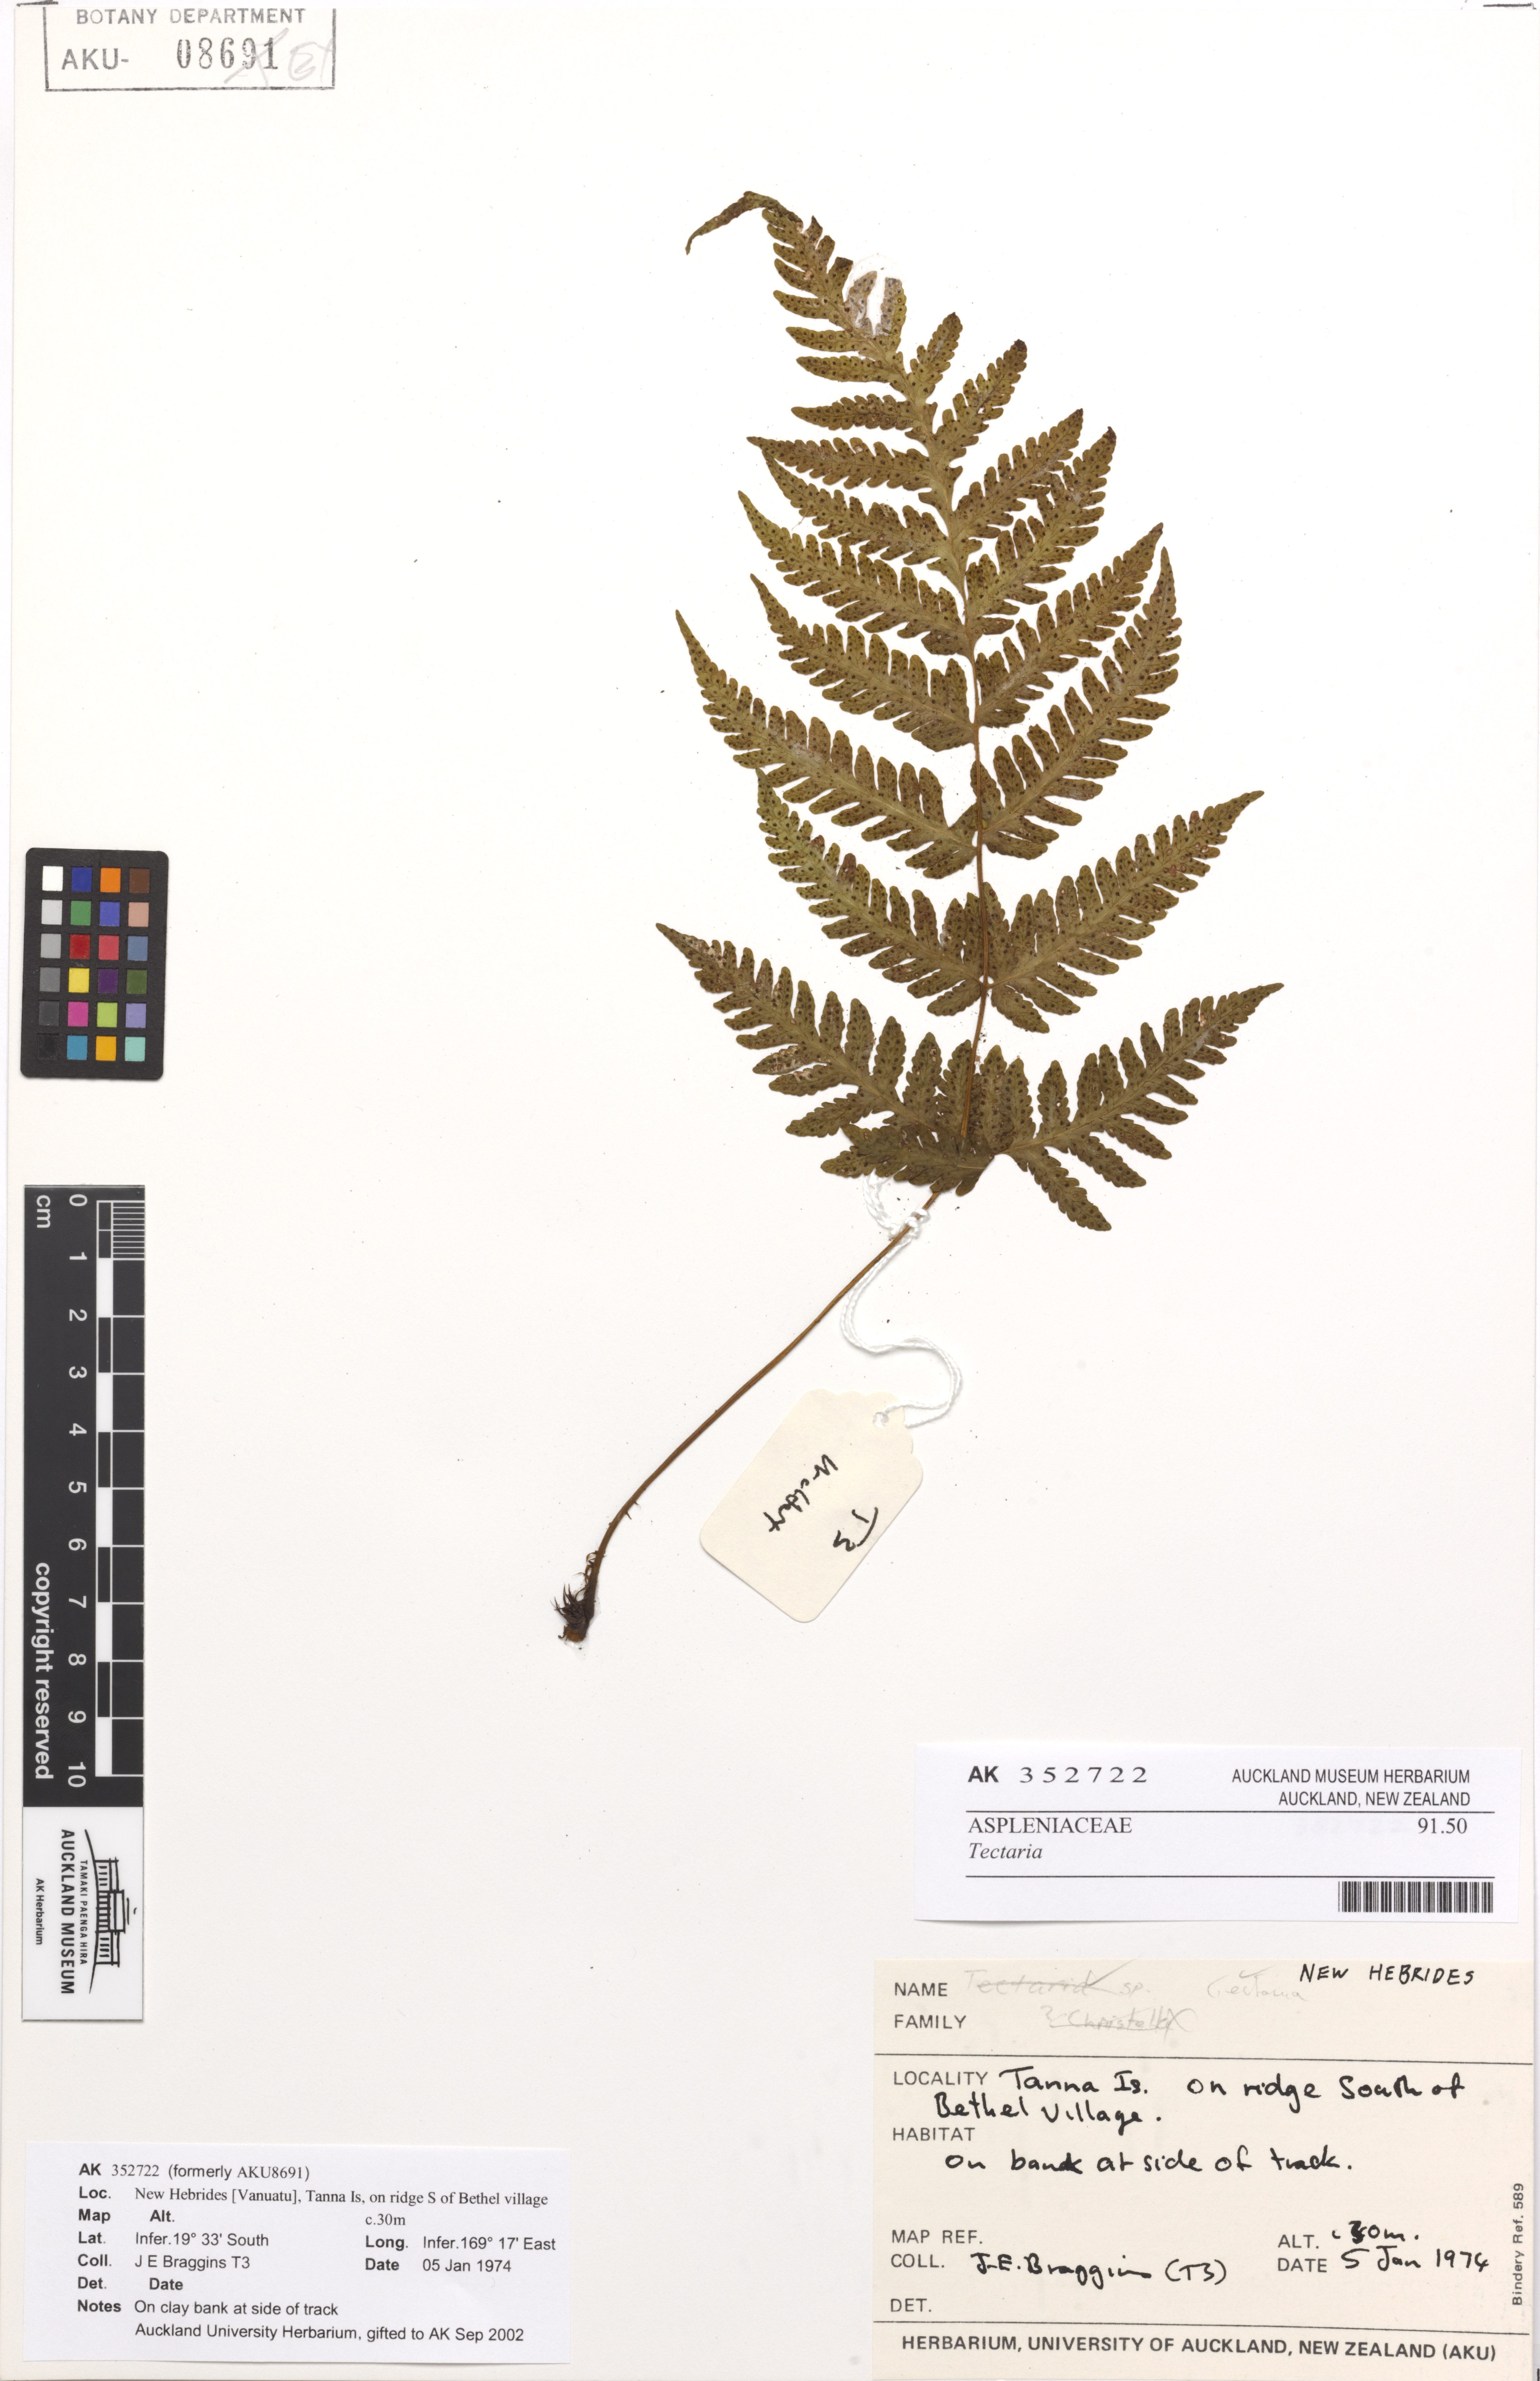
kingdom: Plantae
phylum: Tracheophyta
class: Polypodiopsida
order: Polypodiales
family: Tectariaceae
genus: Tectaria
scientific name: Tectaria
